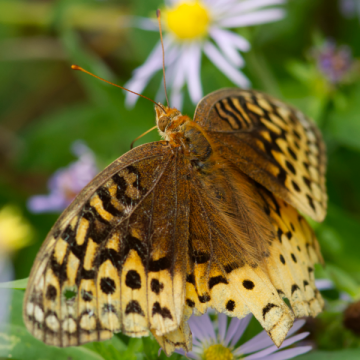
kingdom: Animalia
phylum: Arthropoda
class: Insecta
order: Lepidoptera
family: Nymphalidae
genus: Speyeria
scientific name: Speyeria cybele
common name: Great Spangled Fritillary
